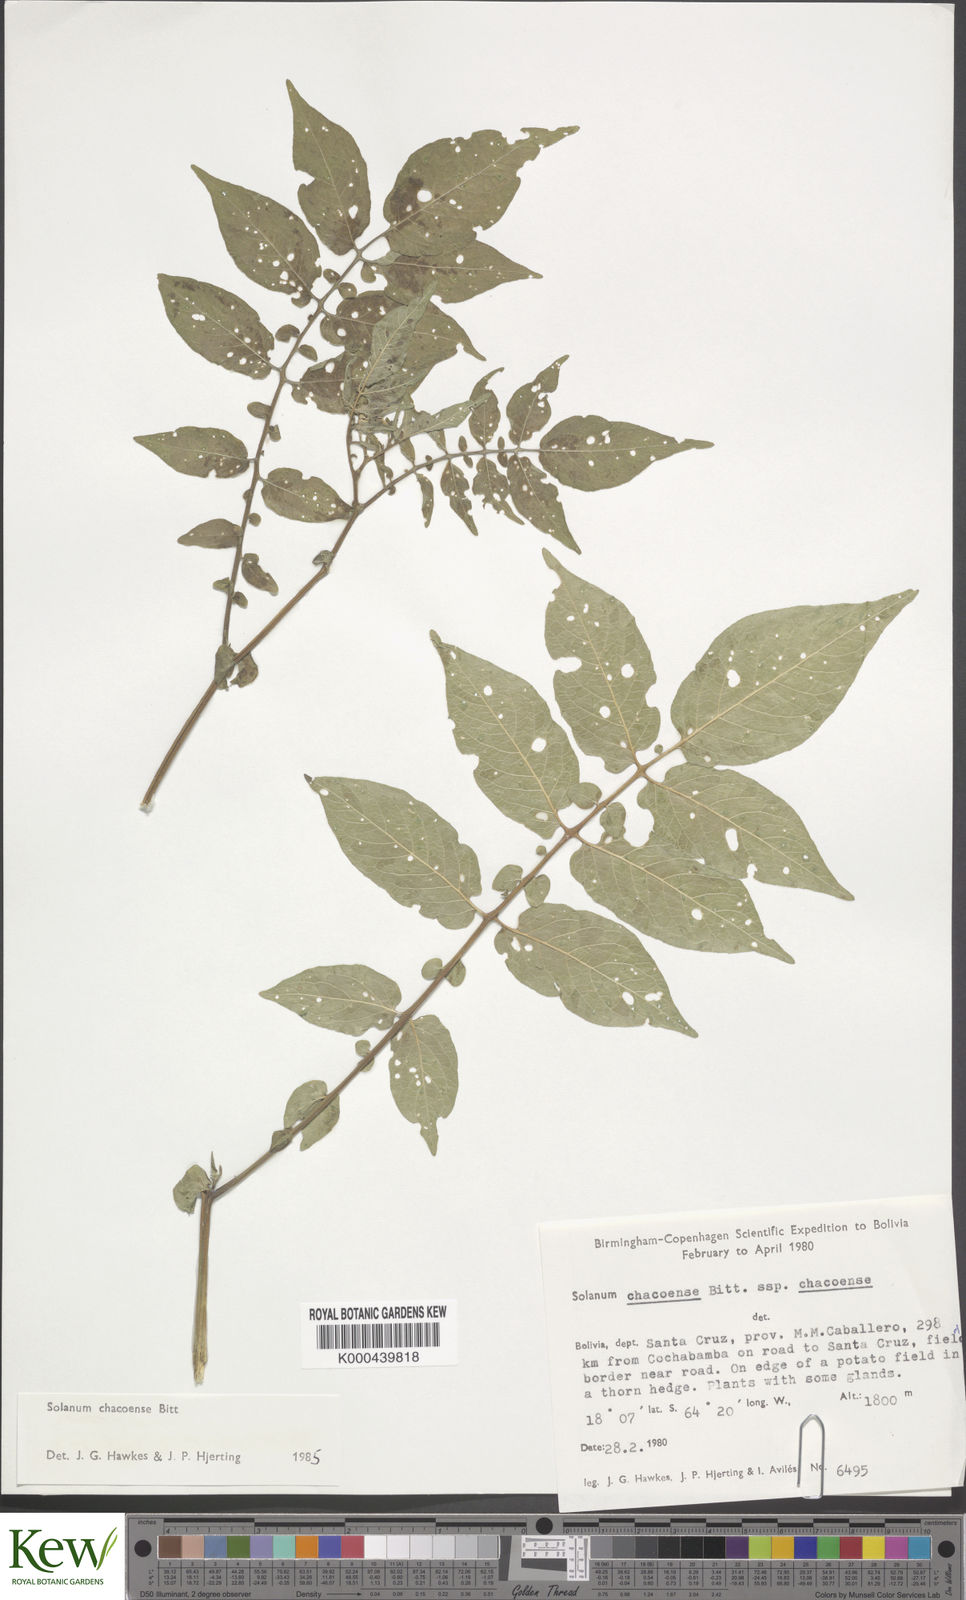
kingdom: Plantae
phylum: Tracheophyta
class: Magnoliopsida
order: Solanales
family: Solanaceae
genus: Solanum
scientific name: Solanum chacoense
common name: Chaco potato
